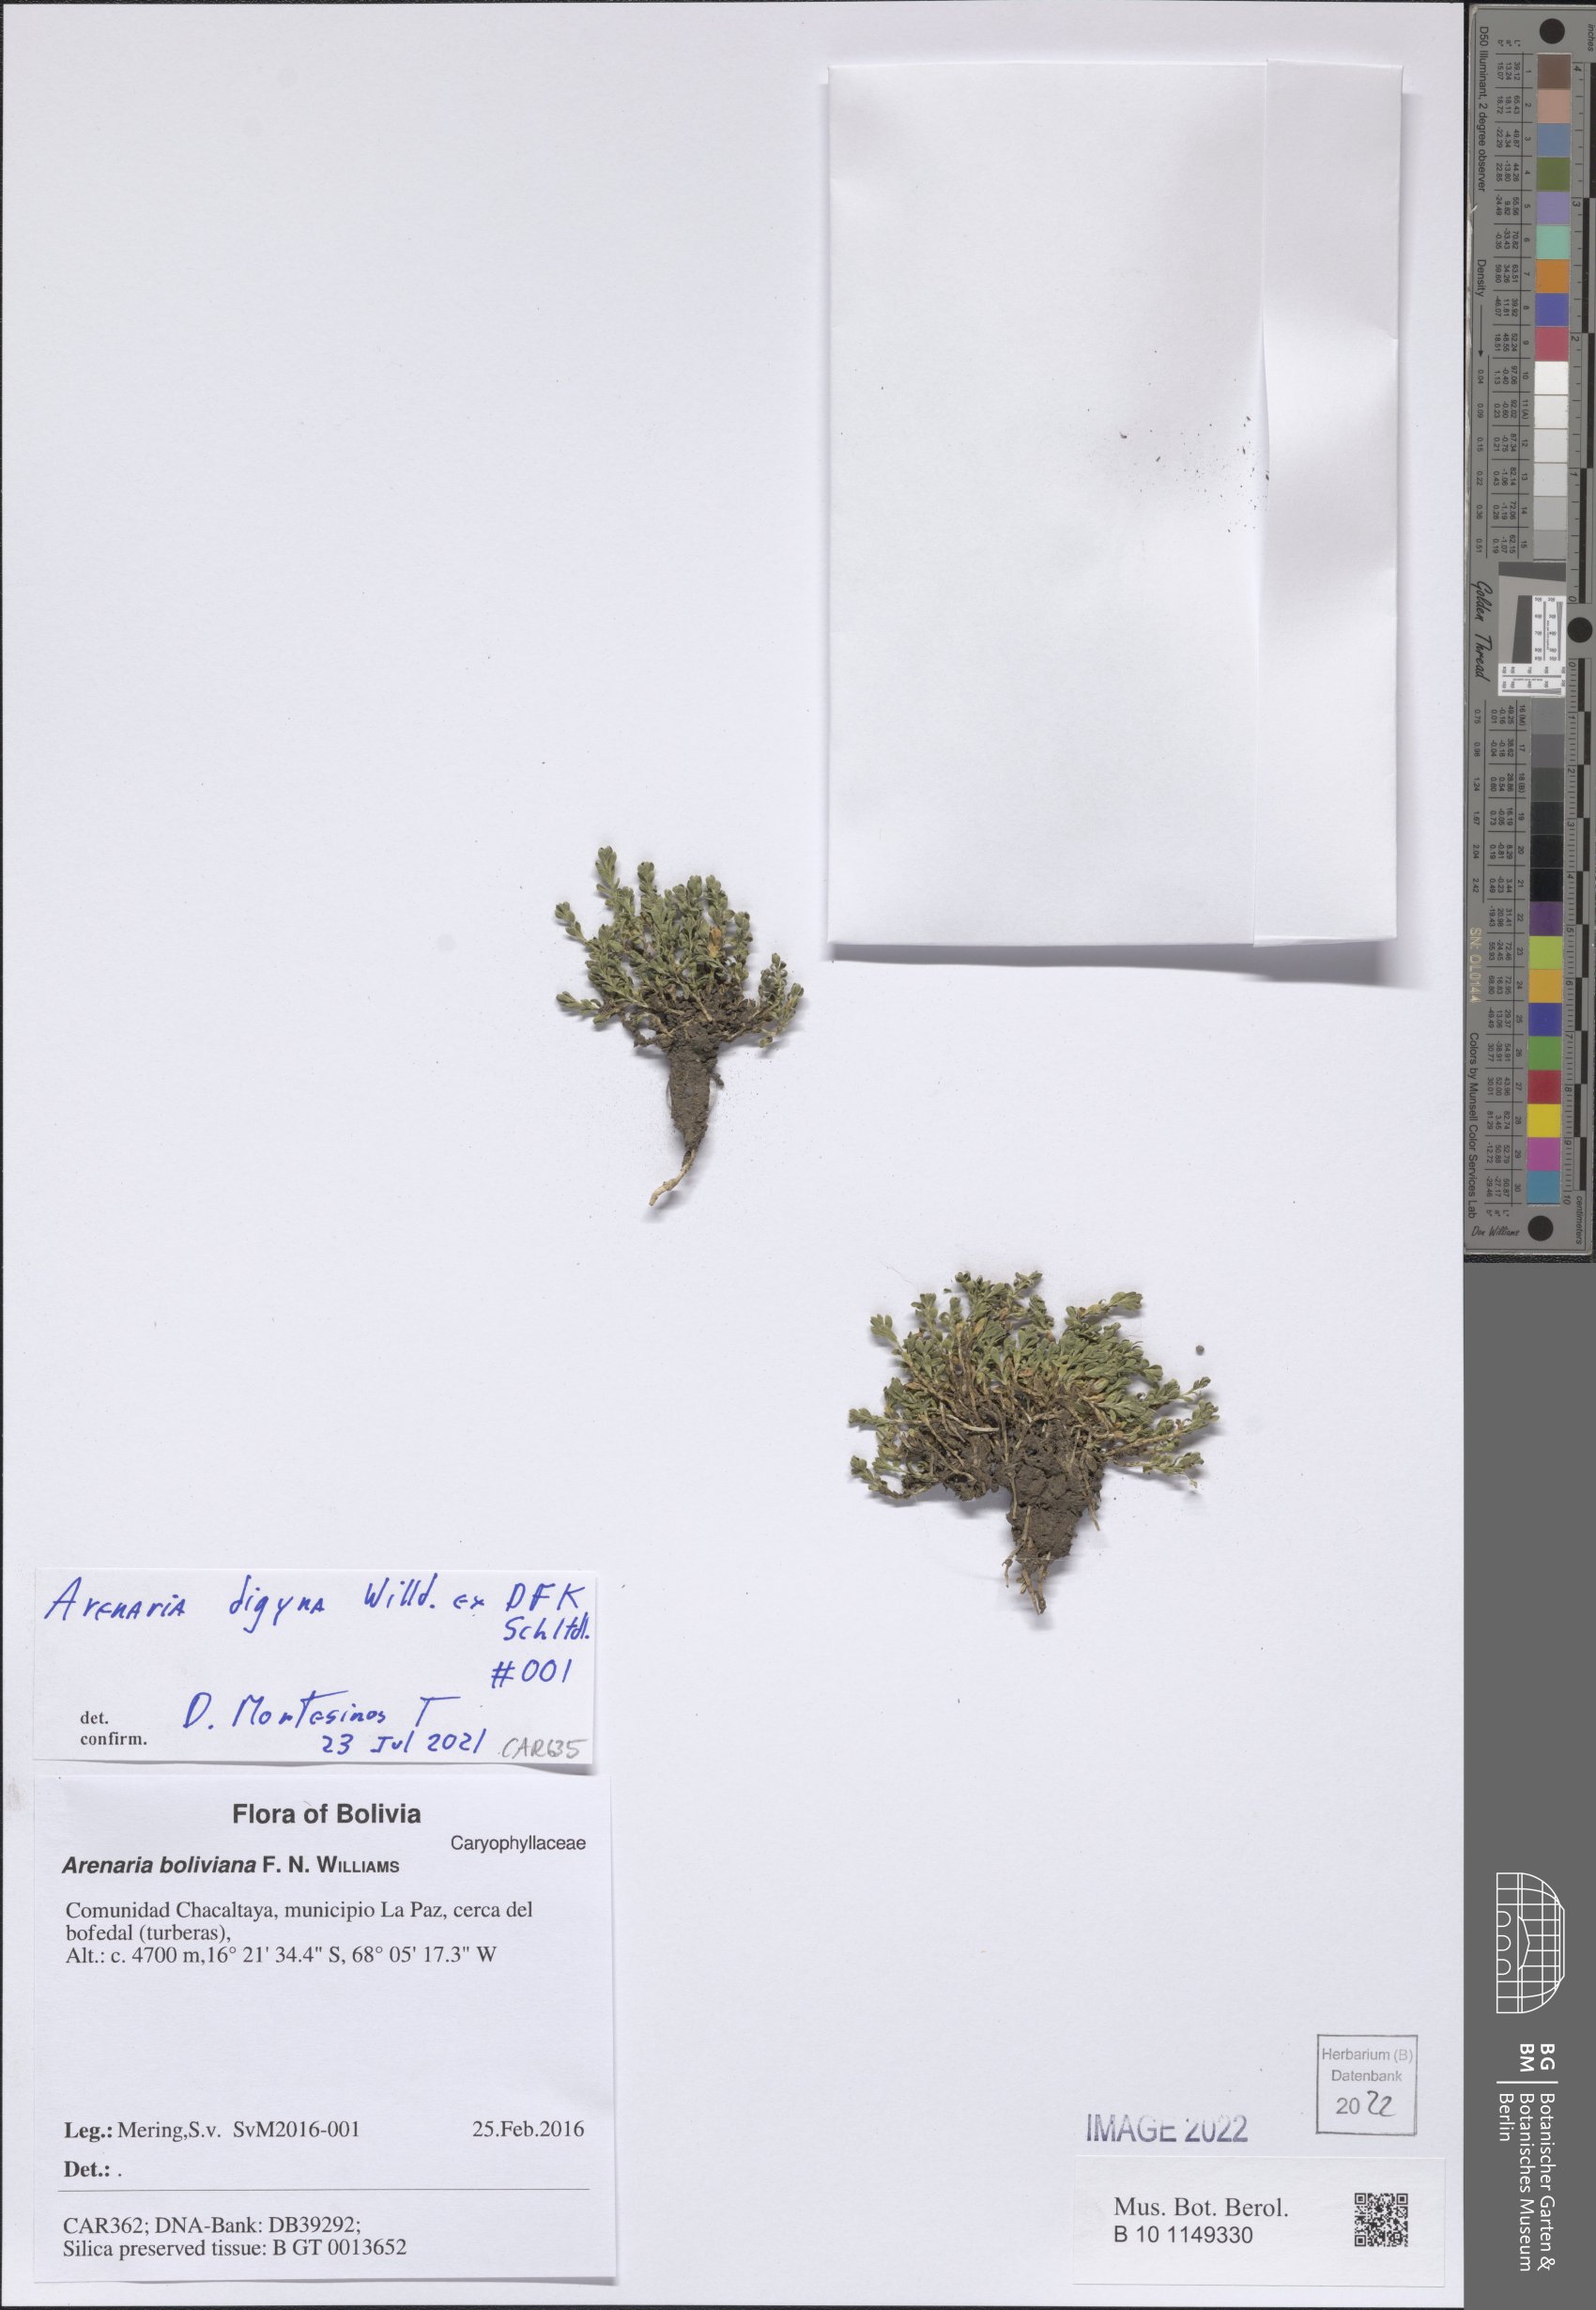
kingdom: Plantae
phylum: Tracheophyta
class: Magnoliopsida
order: Caryophyllales
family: Caryophyllaceae
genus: Arenaria
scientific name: Arenaria digyna
